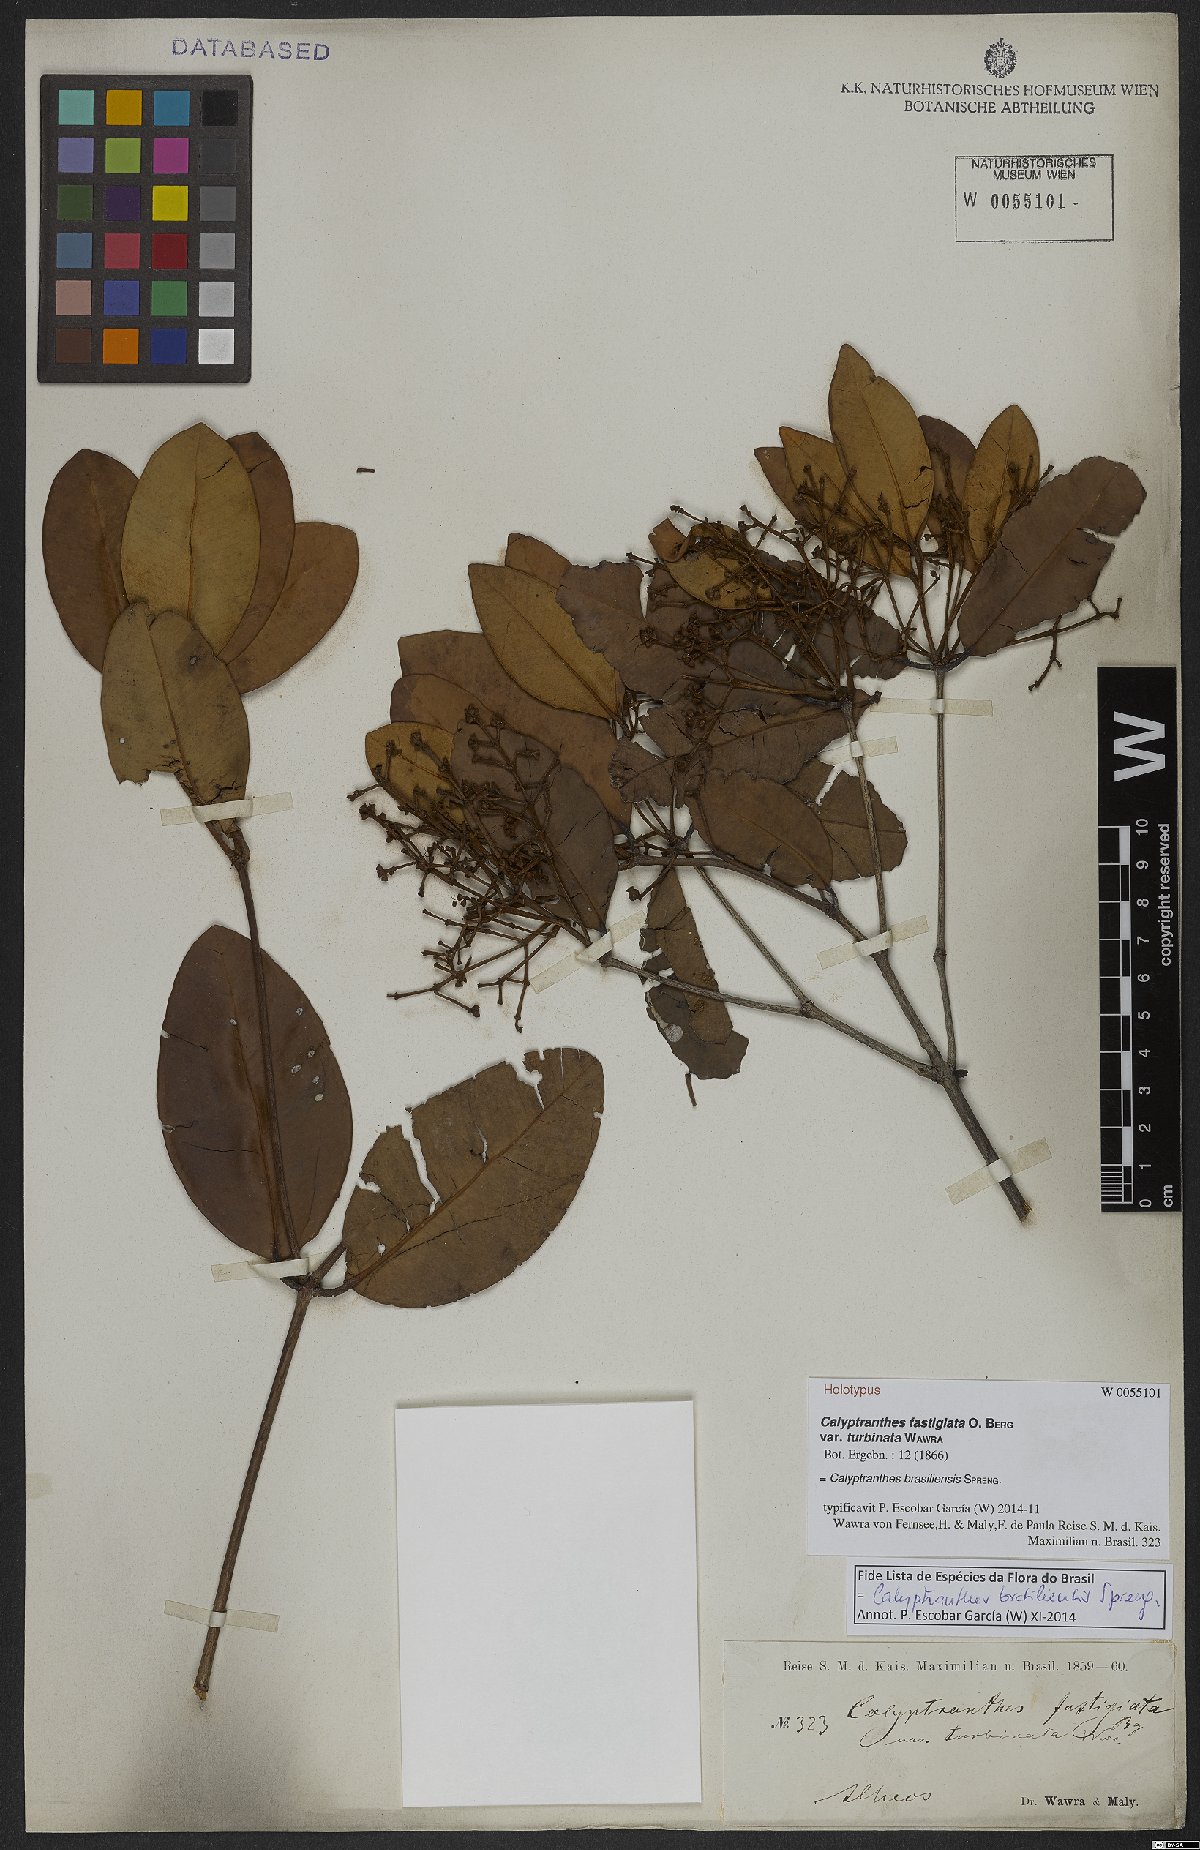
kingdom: Plantae
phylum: Tracheophyta
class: Magnoliopsida
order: Myrtales
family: Myrtaceae
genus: Myrcia
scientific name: Myrcia neobrasiliensis
